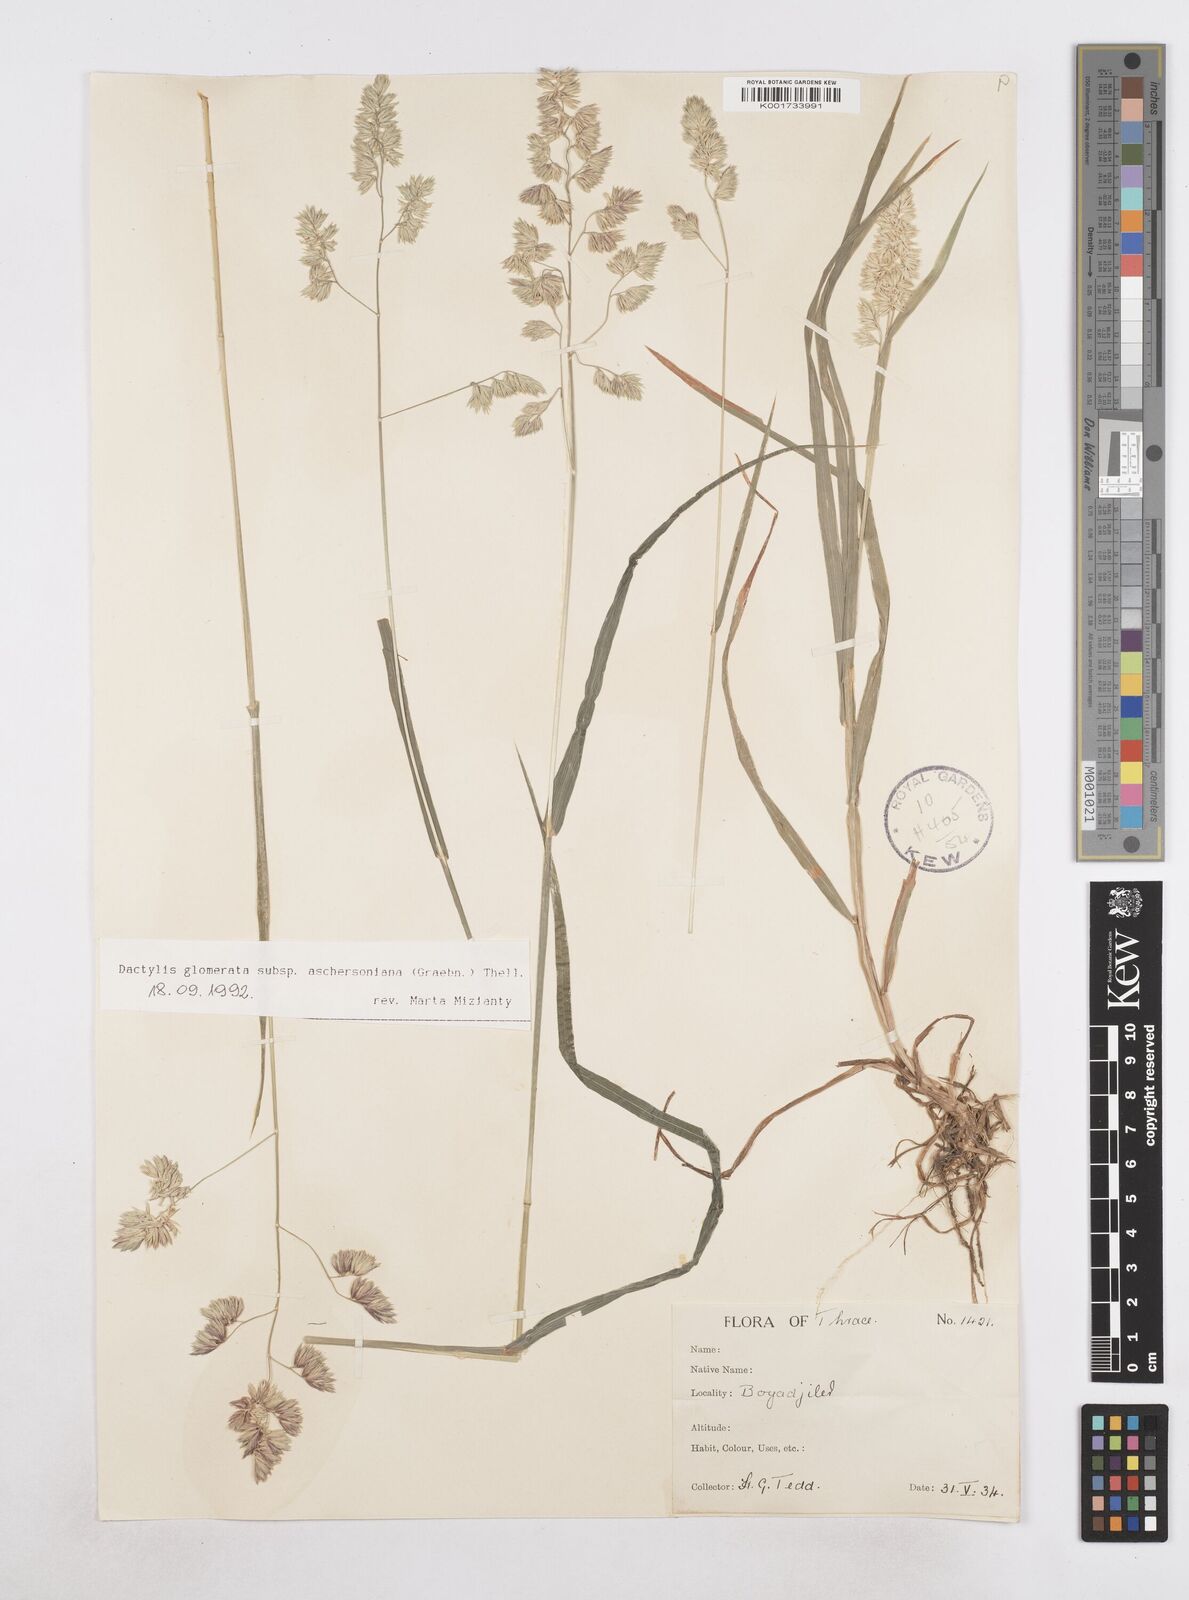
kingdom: Plantae
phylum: Tracheophyta
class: Liliopsida
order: Poales
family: Poaceae
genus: Dactylis
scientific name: Dactylis glomerata
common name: Orchardgrass
